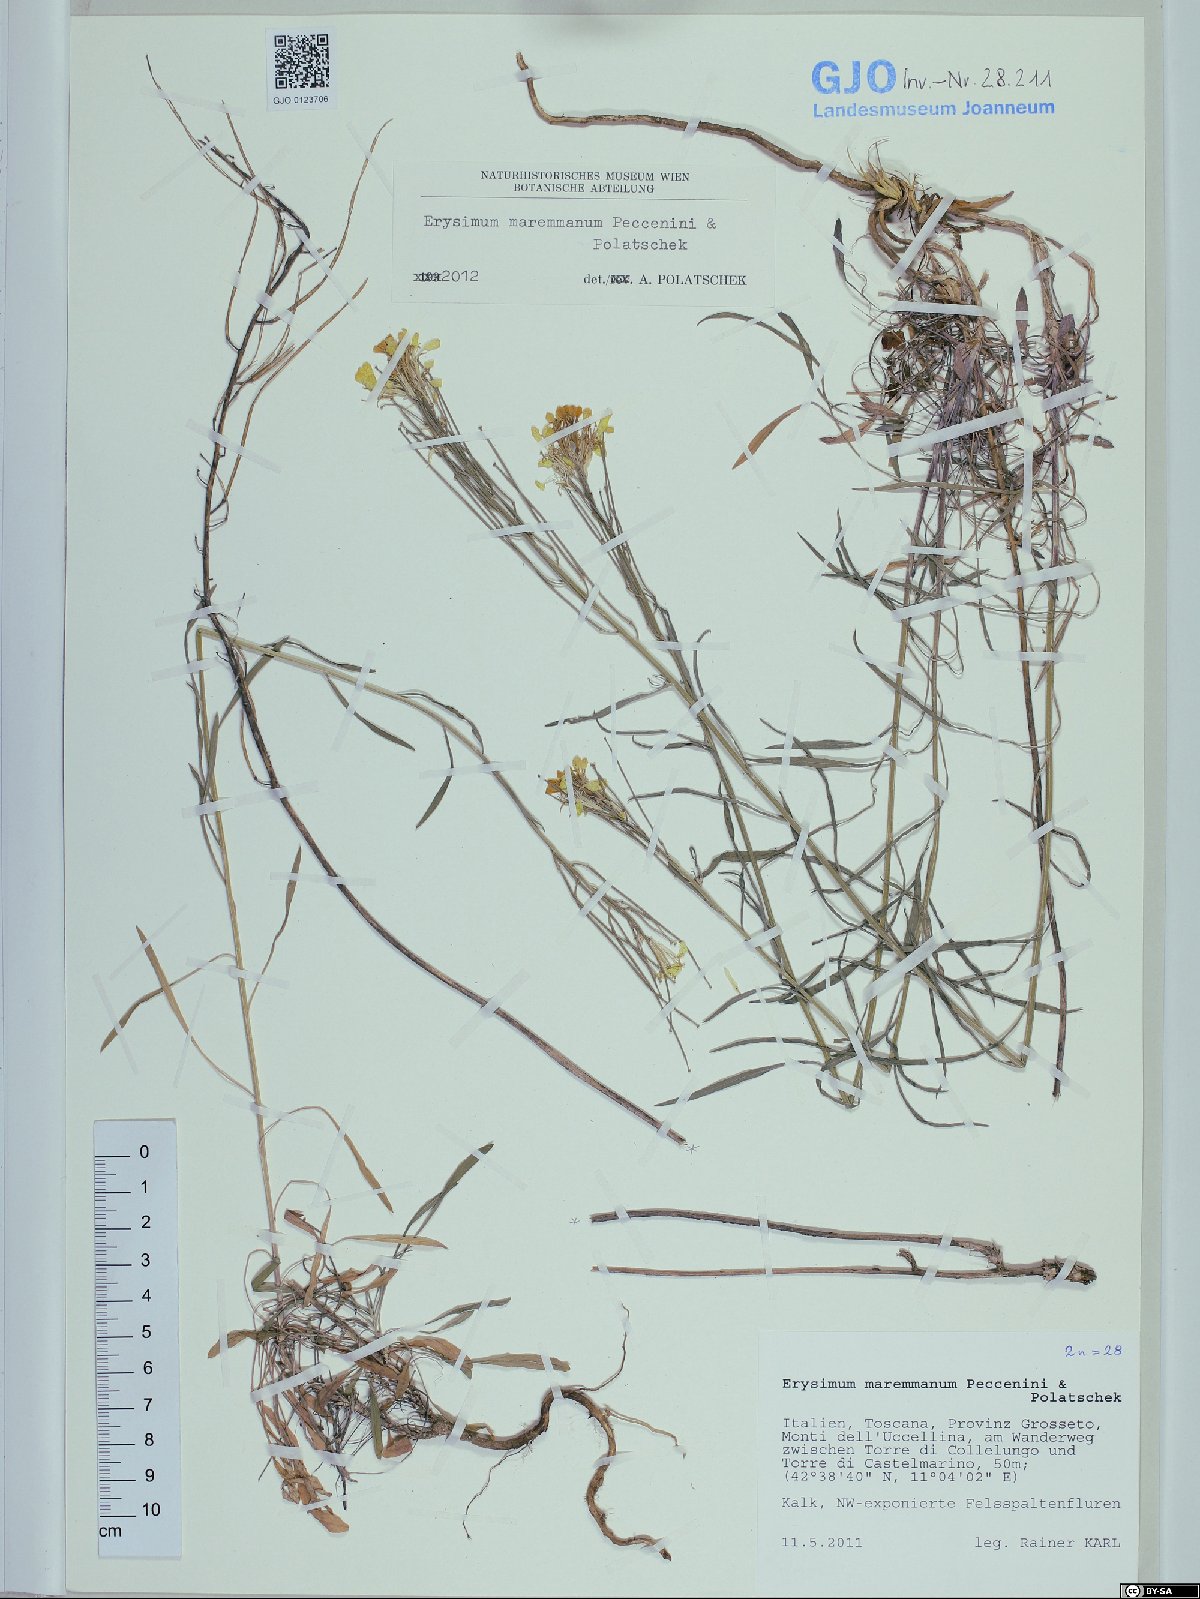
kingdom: Plantae
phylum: Tracheophyta
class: Magnoliopsida
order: Brassicales
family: Brassicaceae
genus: Erysimum
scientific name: Erysimum maremmanum
